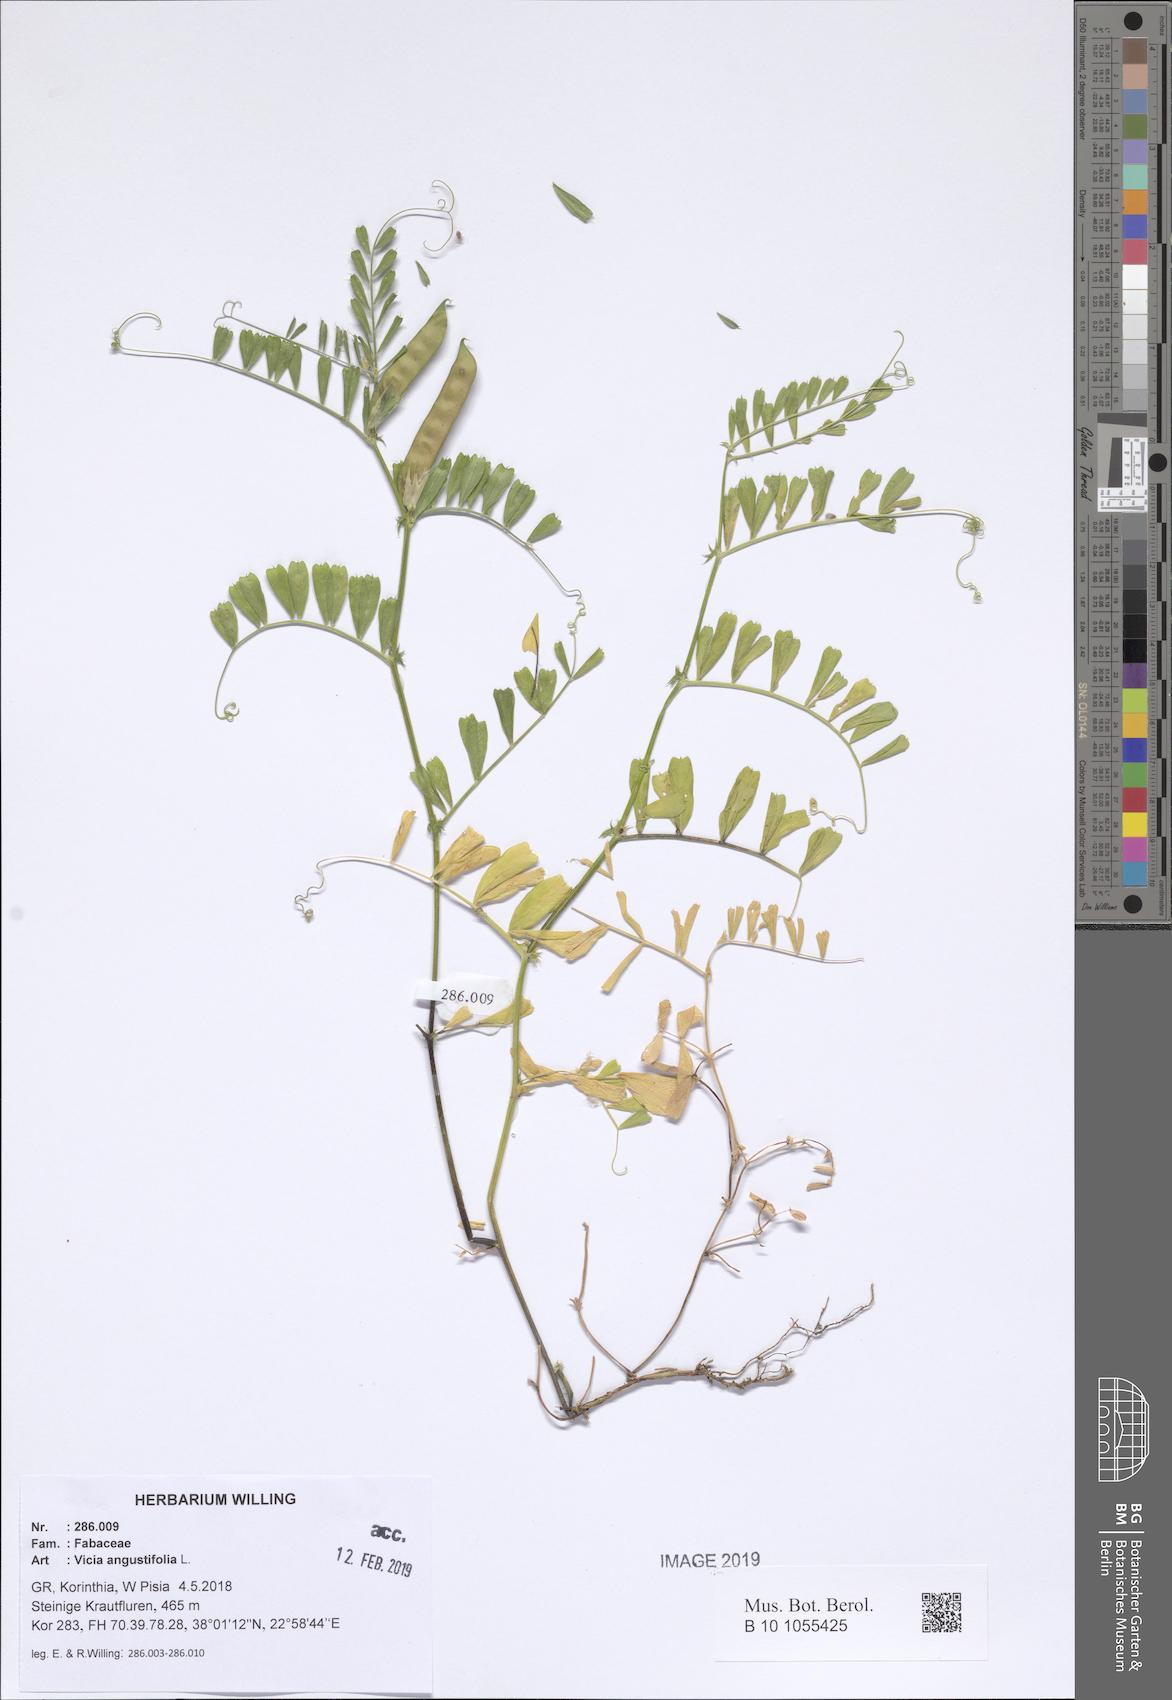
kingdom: Plantae
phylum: Tracheophyta
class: Magnoliopsida
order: Fabales
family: Fabaceae
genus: Vicia
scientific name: Vicia sativa
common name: Garden vetch
